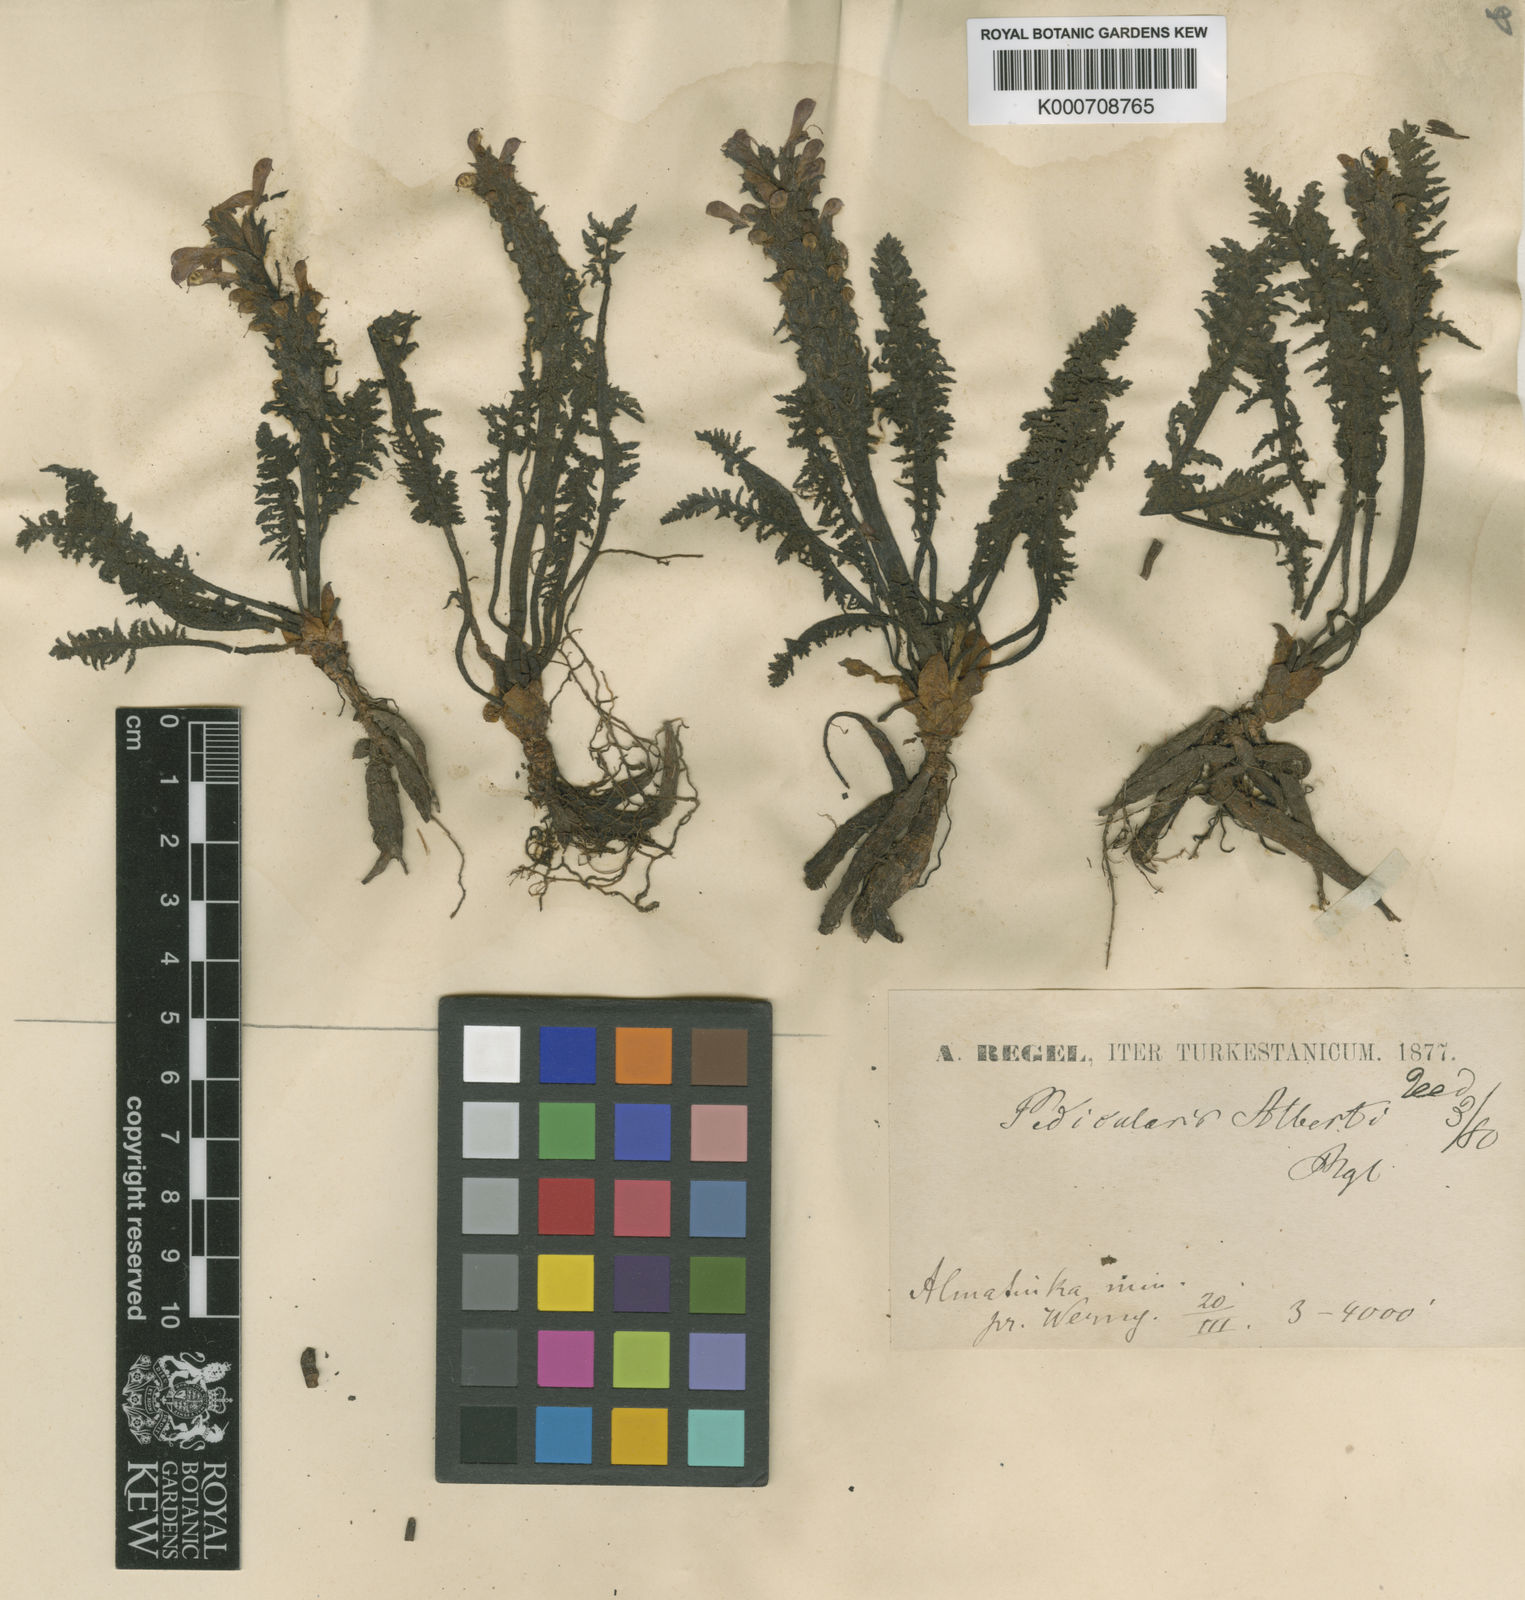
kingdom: Plantae
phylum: Tracheophyta
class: Magnoliopsida
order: Lamiales
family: Orobanchaceae
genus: Pedicularis
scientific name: Pedicularis alberti
